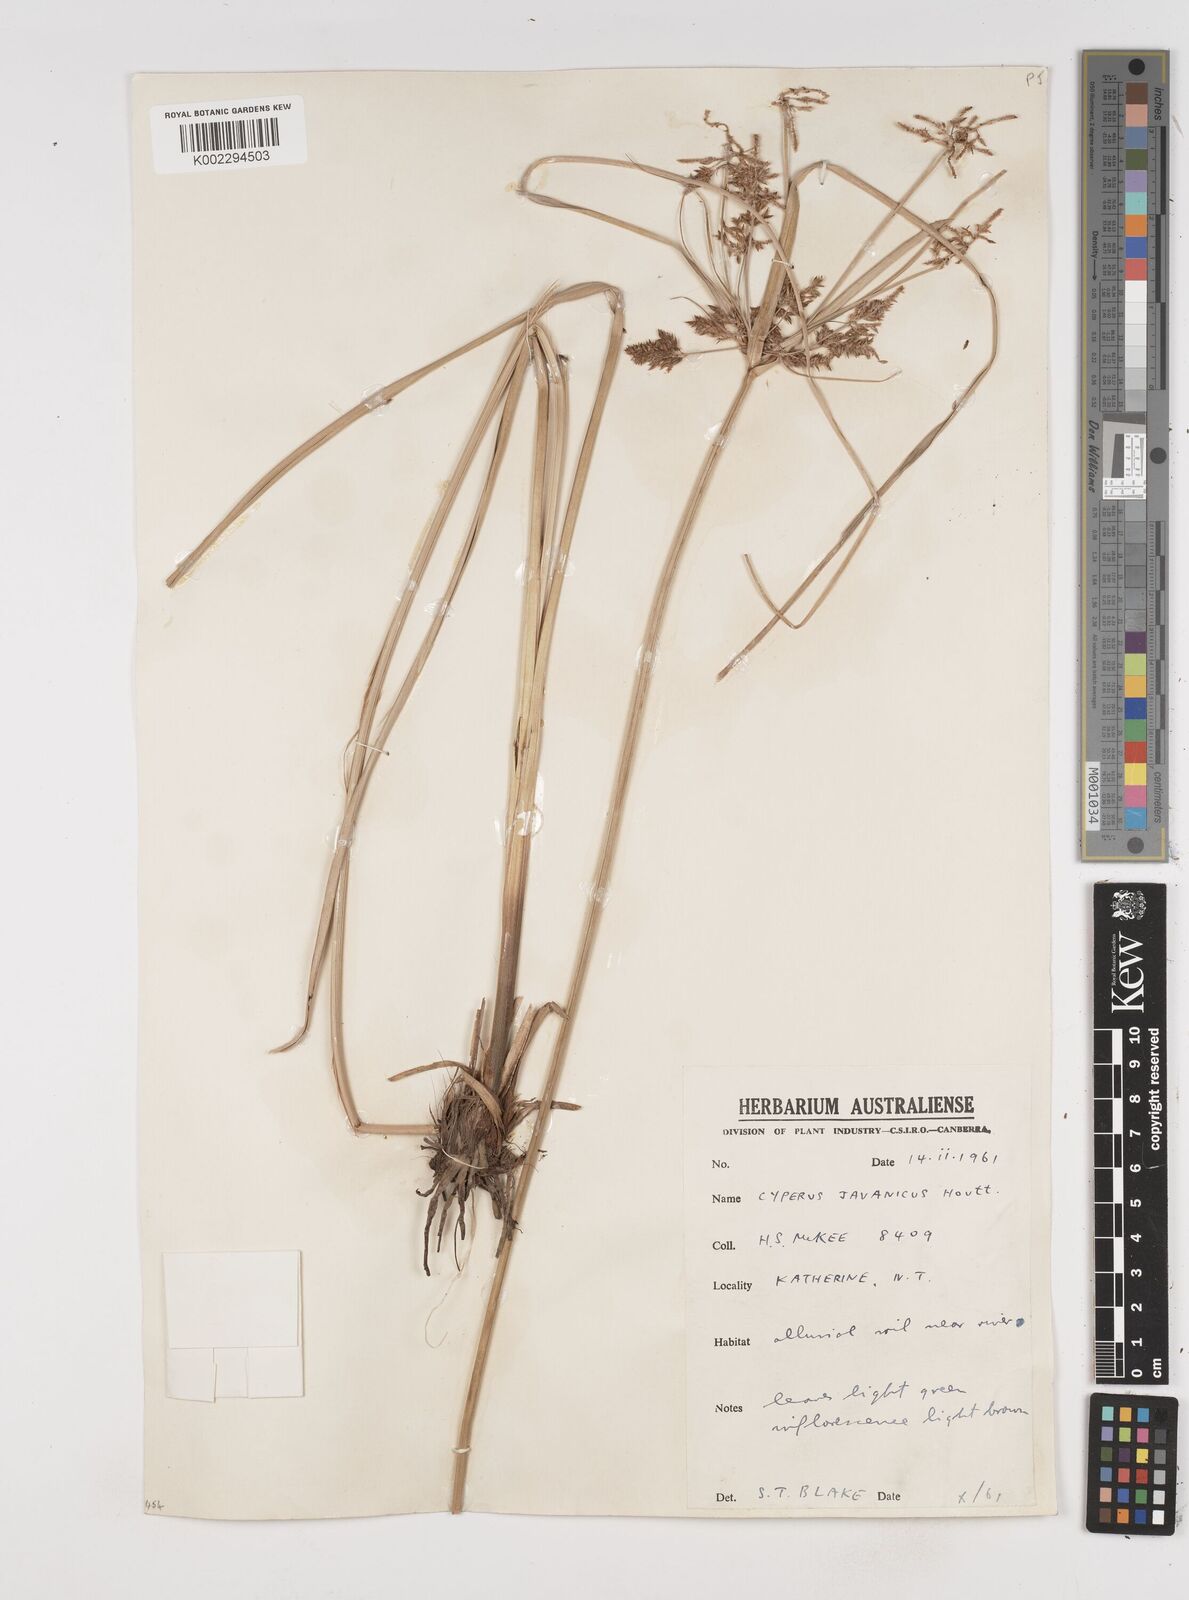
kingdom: Plantae
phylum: Tracheophyta
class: Liliopsida
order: Poales
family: Cyperaceae
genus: Cyperus
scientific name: Cyperus javanicus
